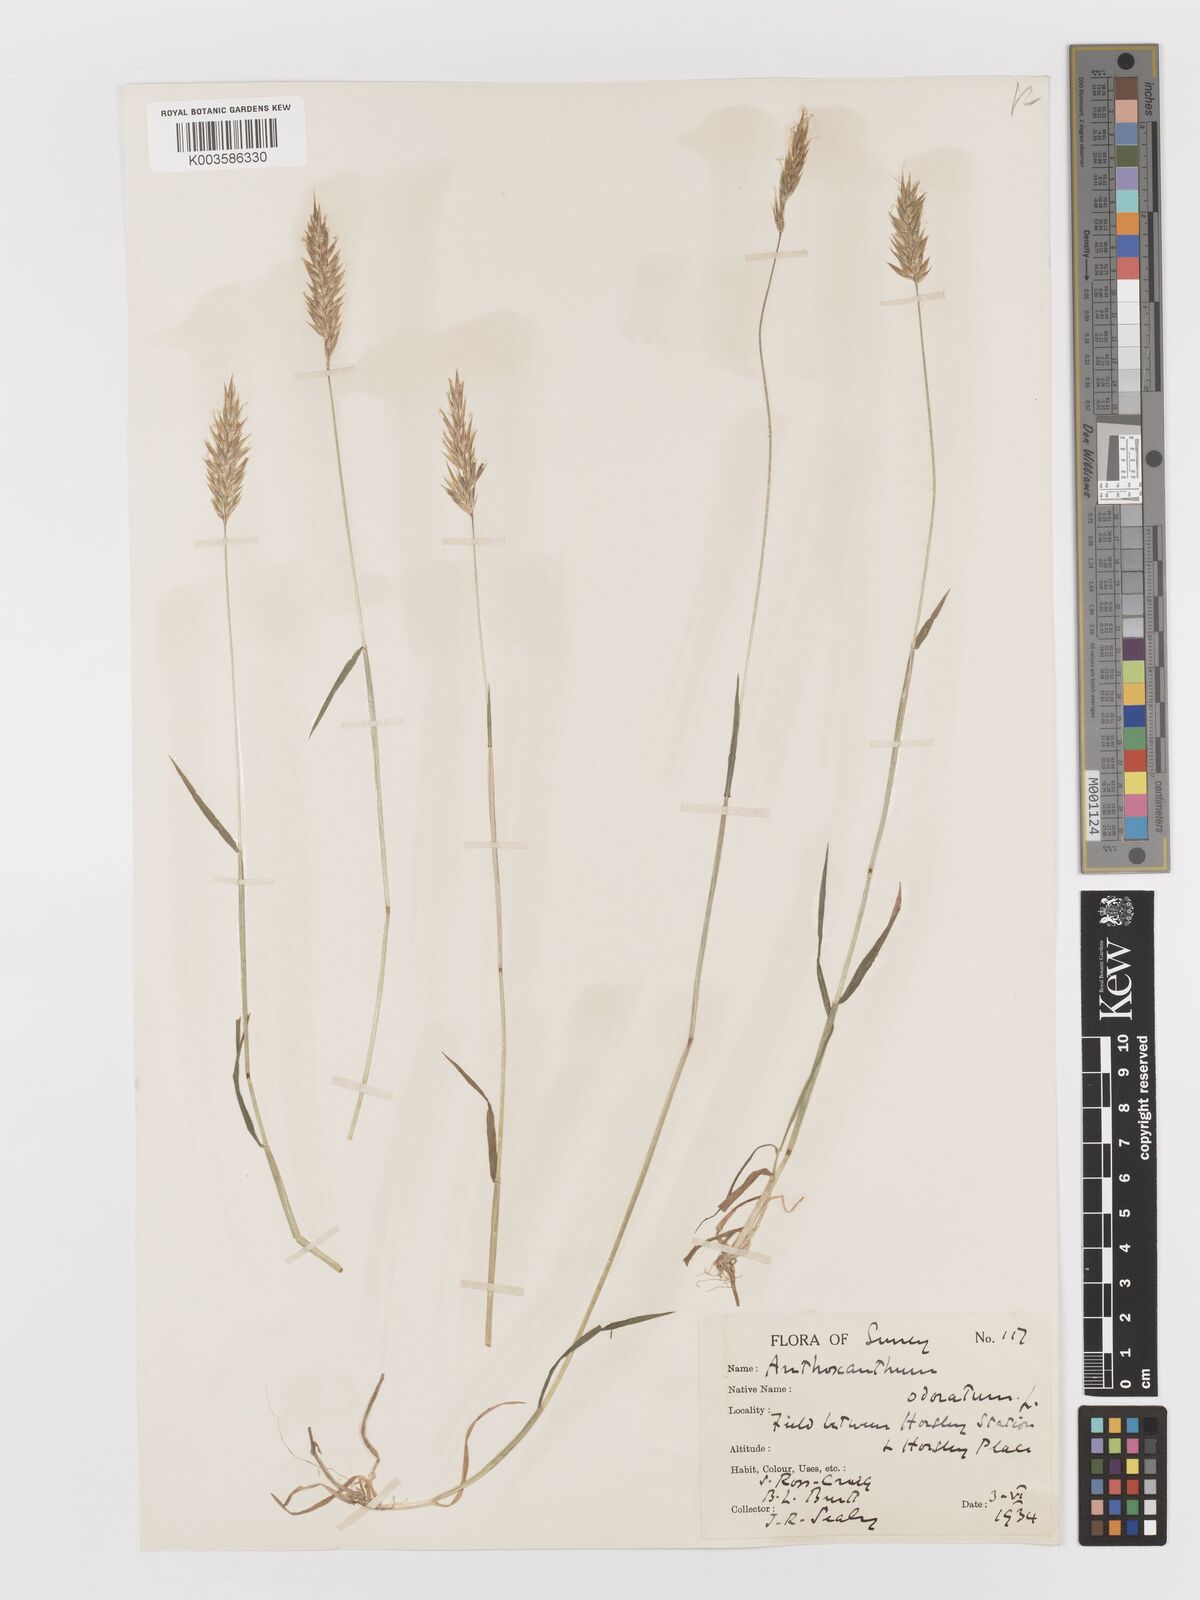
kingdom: Plantae
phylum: Tracheophyta
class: Liliopsida
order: Poales
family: Poaceae
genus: Anthoxanthum
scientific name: Anthoxanthum odoratum
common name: Sweet vernalgrass
